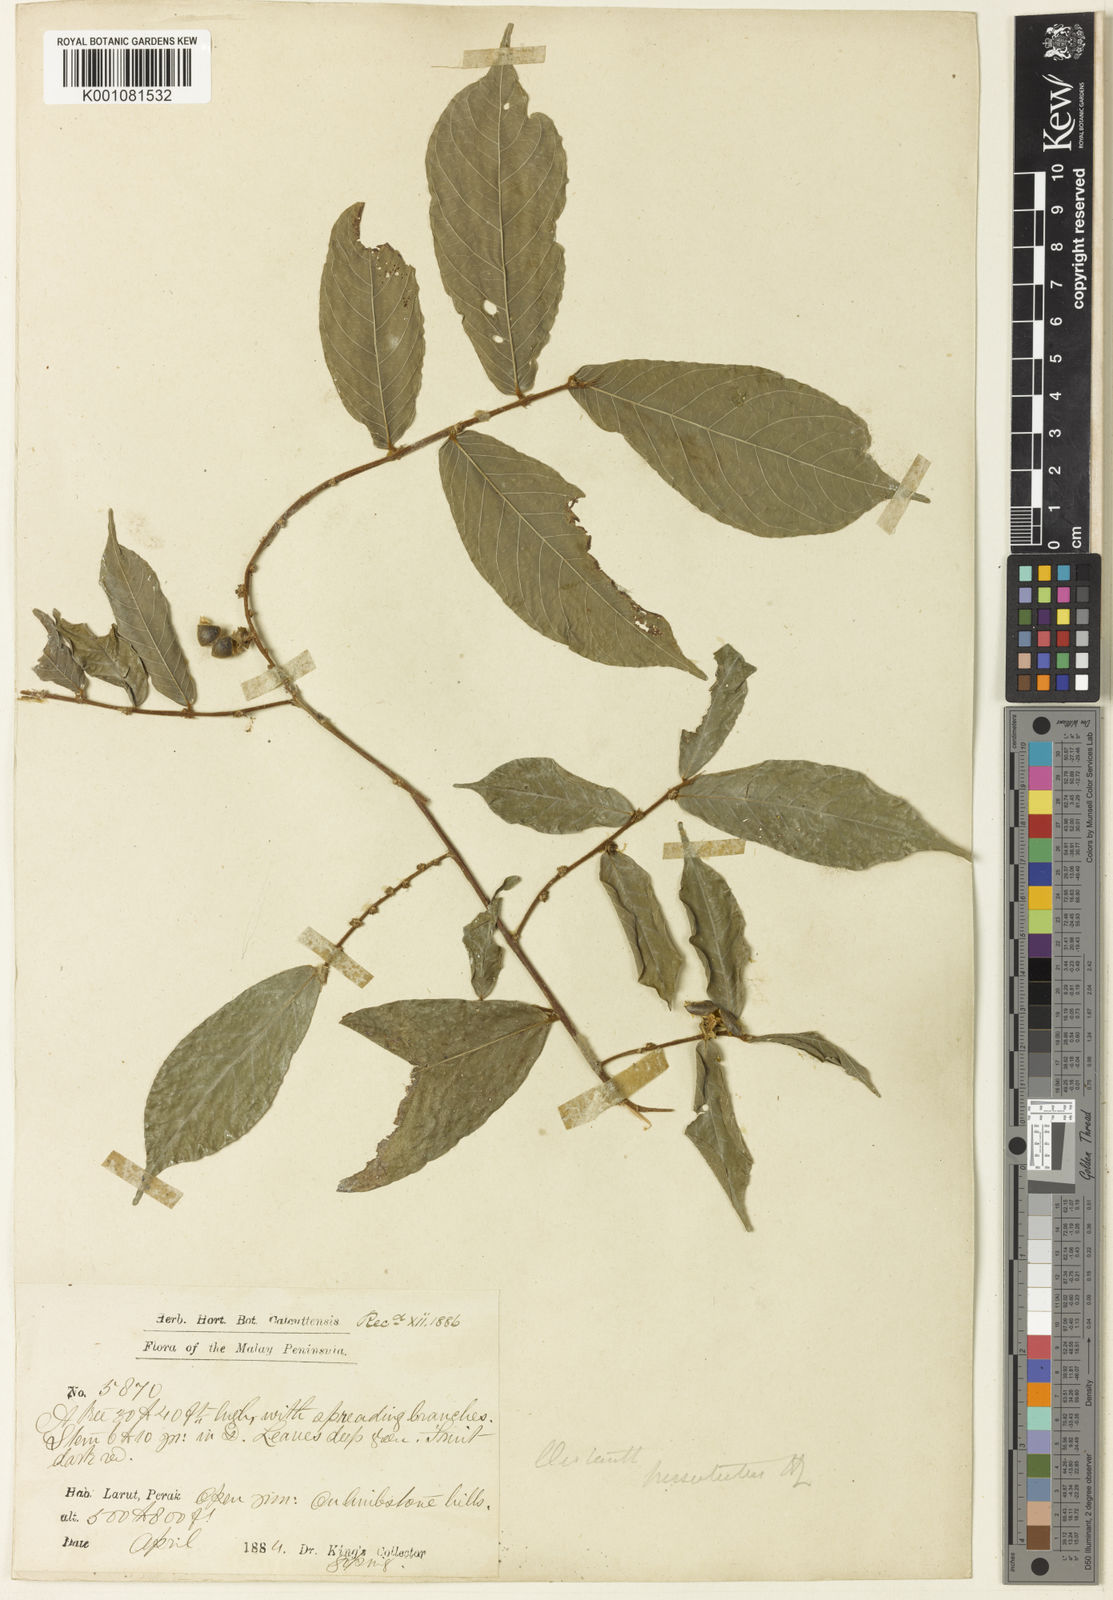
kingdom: Plantae
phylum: Tracheophyta
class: Magnoliopsida
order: Malpighiales
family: Phyllanthaceae
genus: Cleistanthus
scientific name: Cleistanthus hirsutulus
